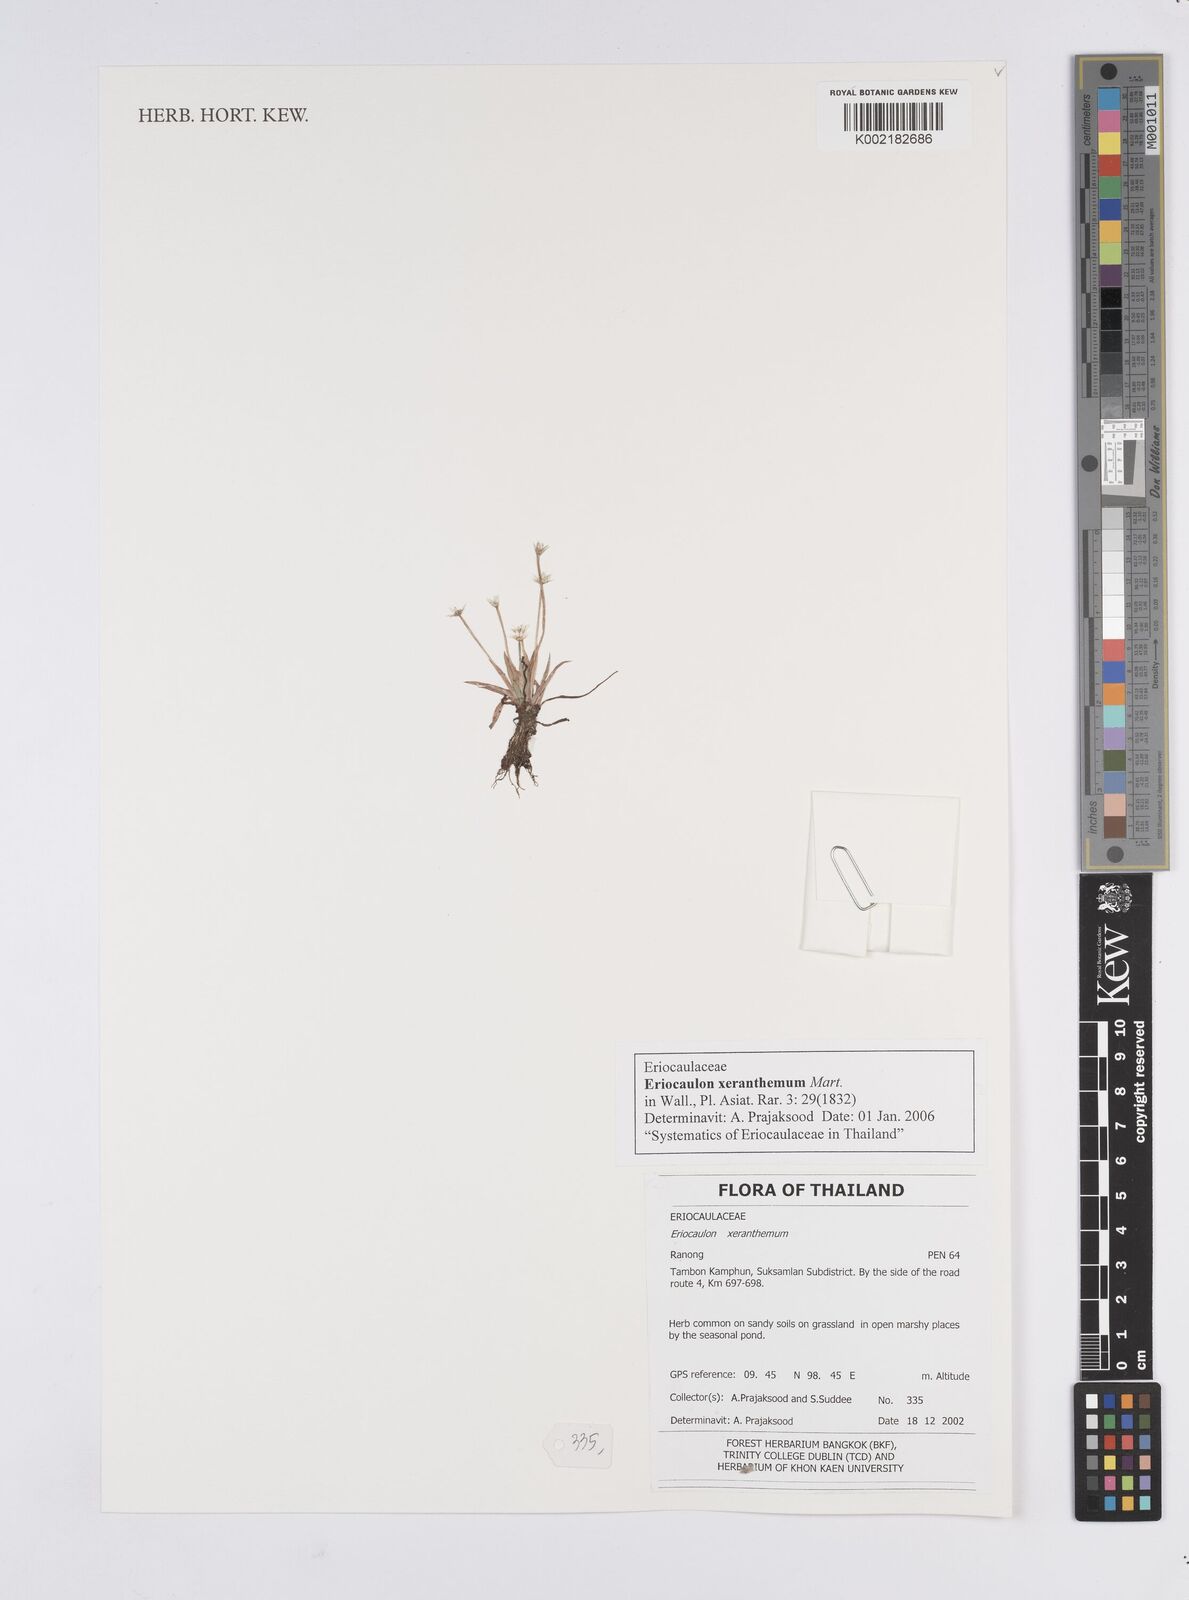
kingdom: Plantae
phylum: Tracheophyta
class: Liliopsida
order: Poales
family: Eriocaulaceae
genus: Eriocaulon
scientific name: Eriocaulon xeranthemum
